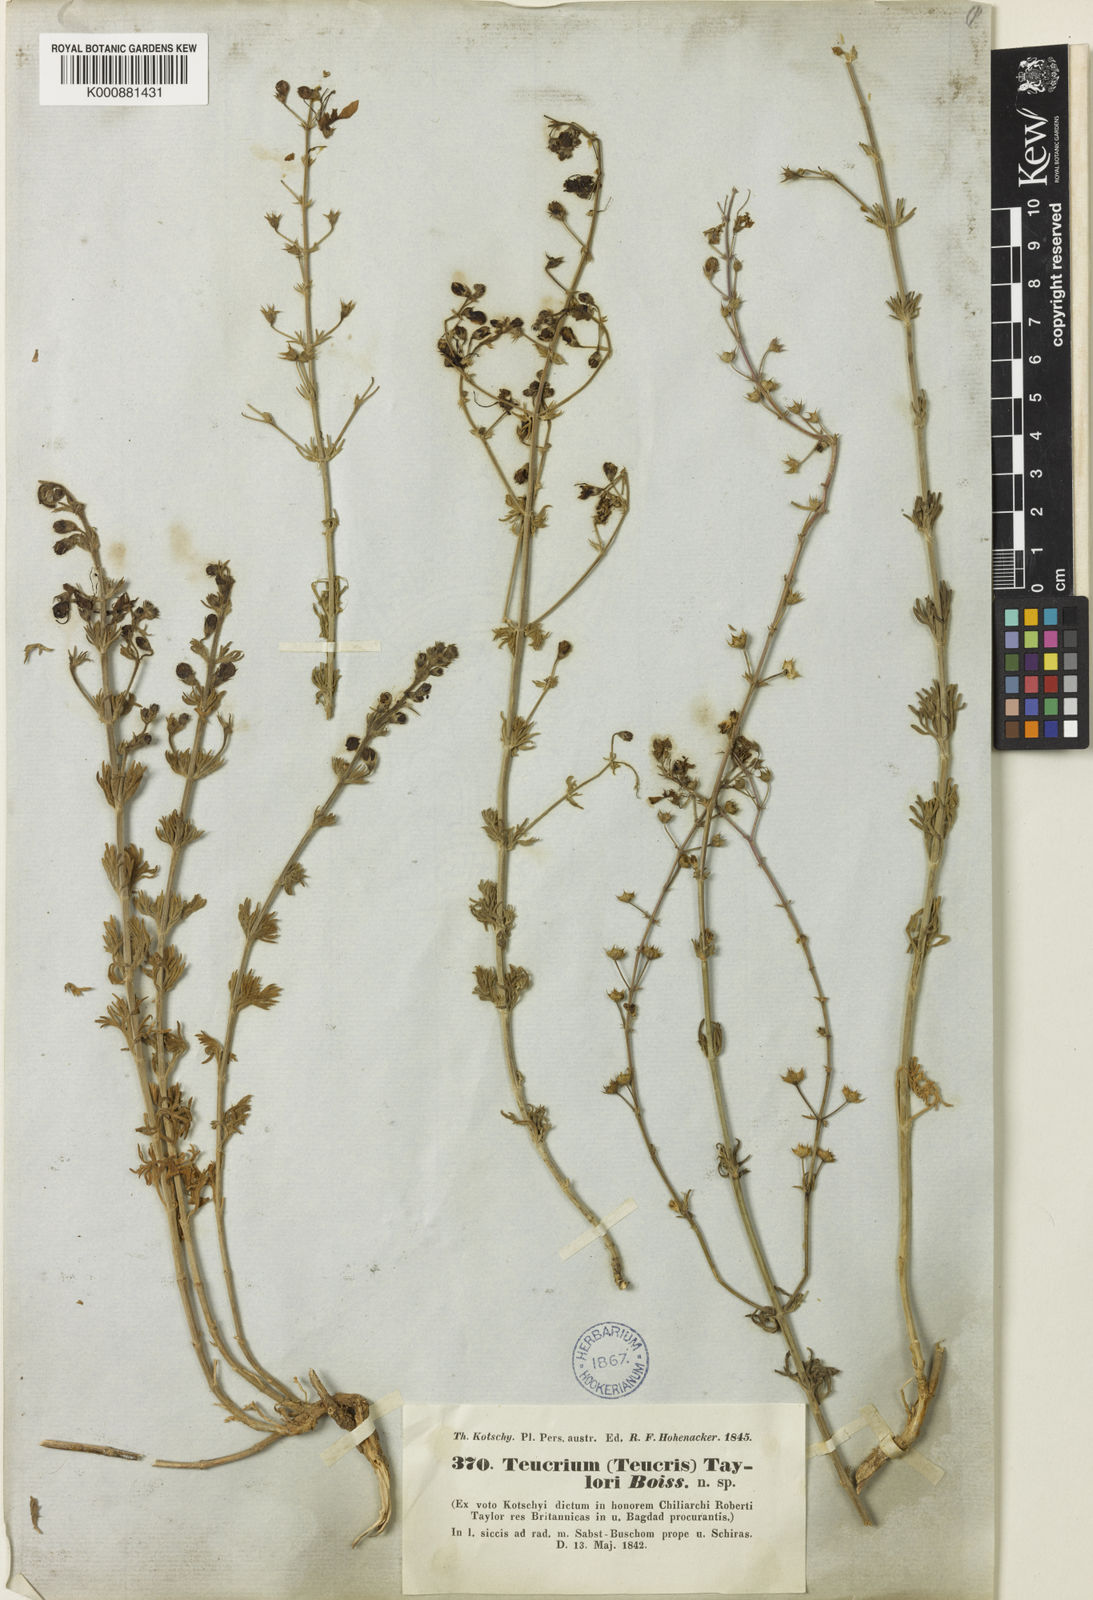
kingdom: Plantae
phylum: Tracheophyta
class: Magnoliopsida
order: Lamiales
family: Lamiaceae
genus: Teucrium
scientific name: Teucrium orientale
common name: Oriental germander
